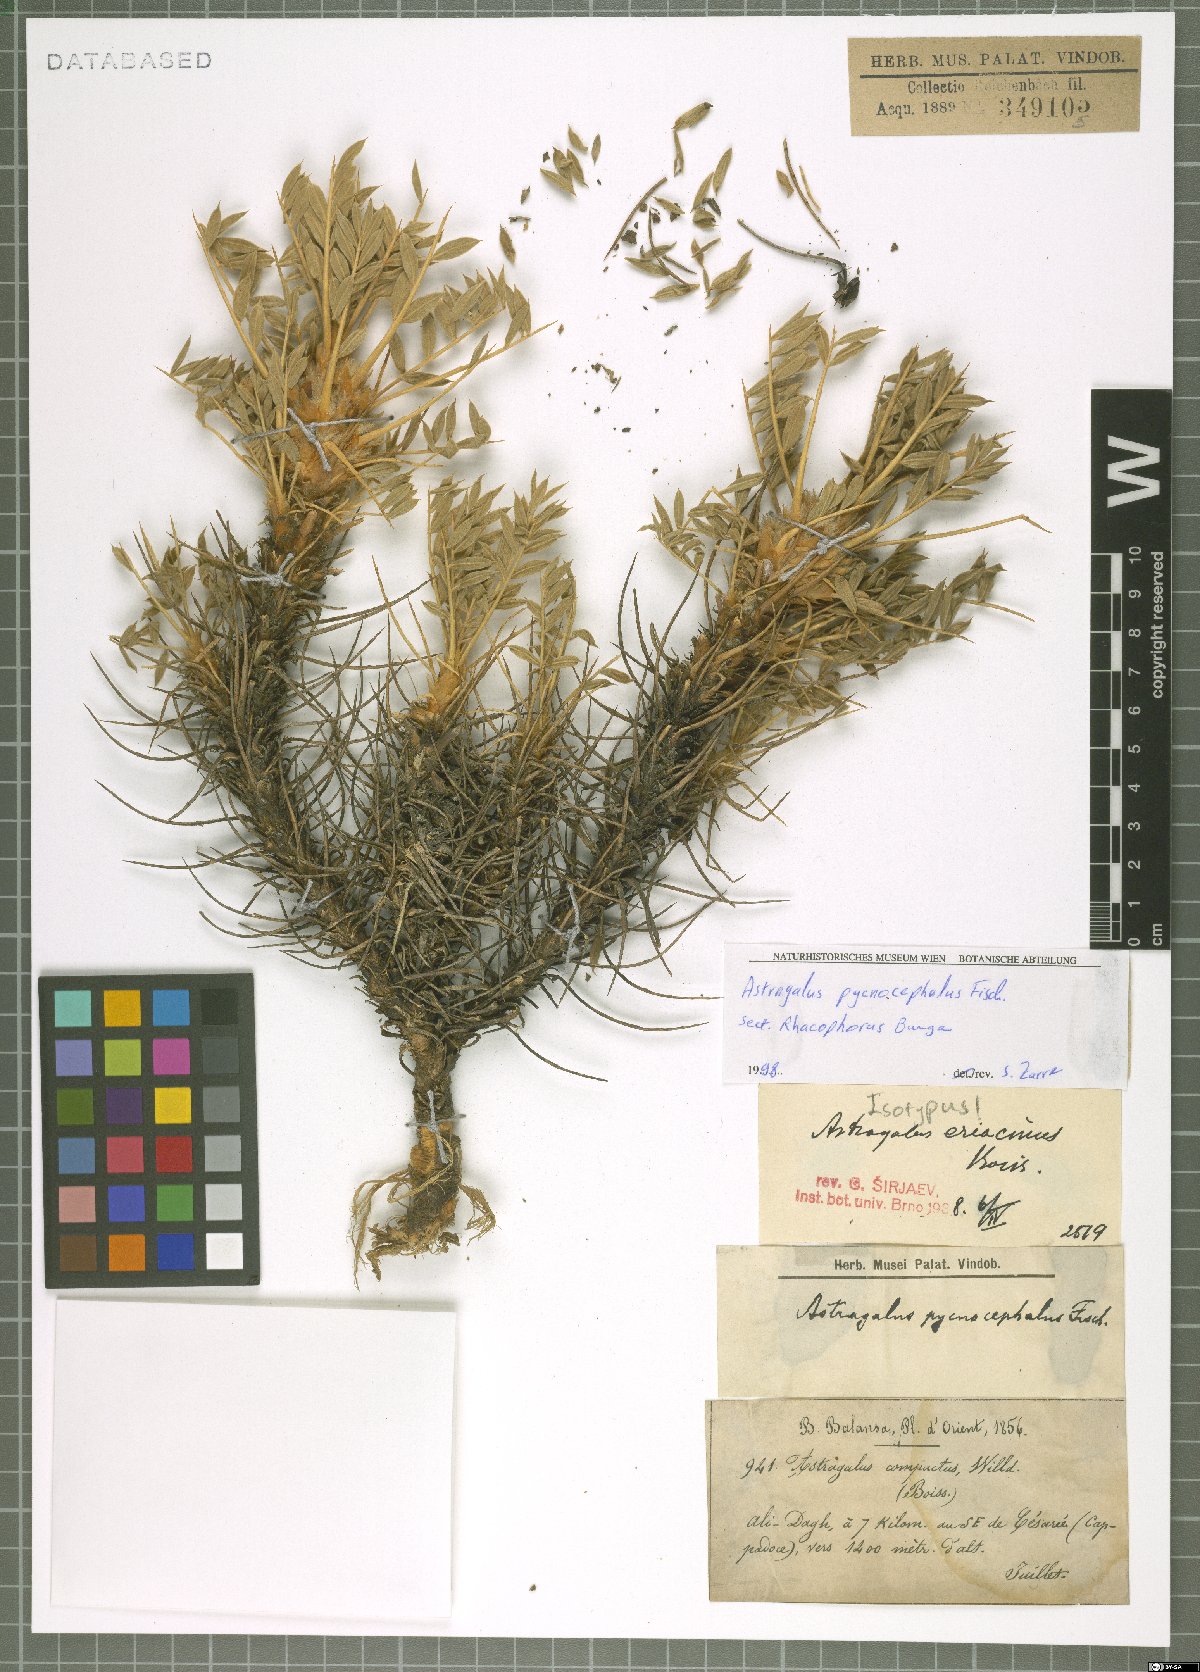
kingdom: Plantae
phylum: Tracheophyta
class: Magnoliopsida
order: Fabales
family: Fabaceae
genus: Astragalus
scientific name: Astragalus pycnocephalus
